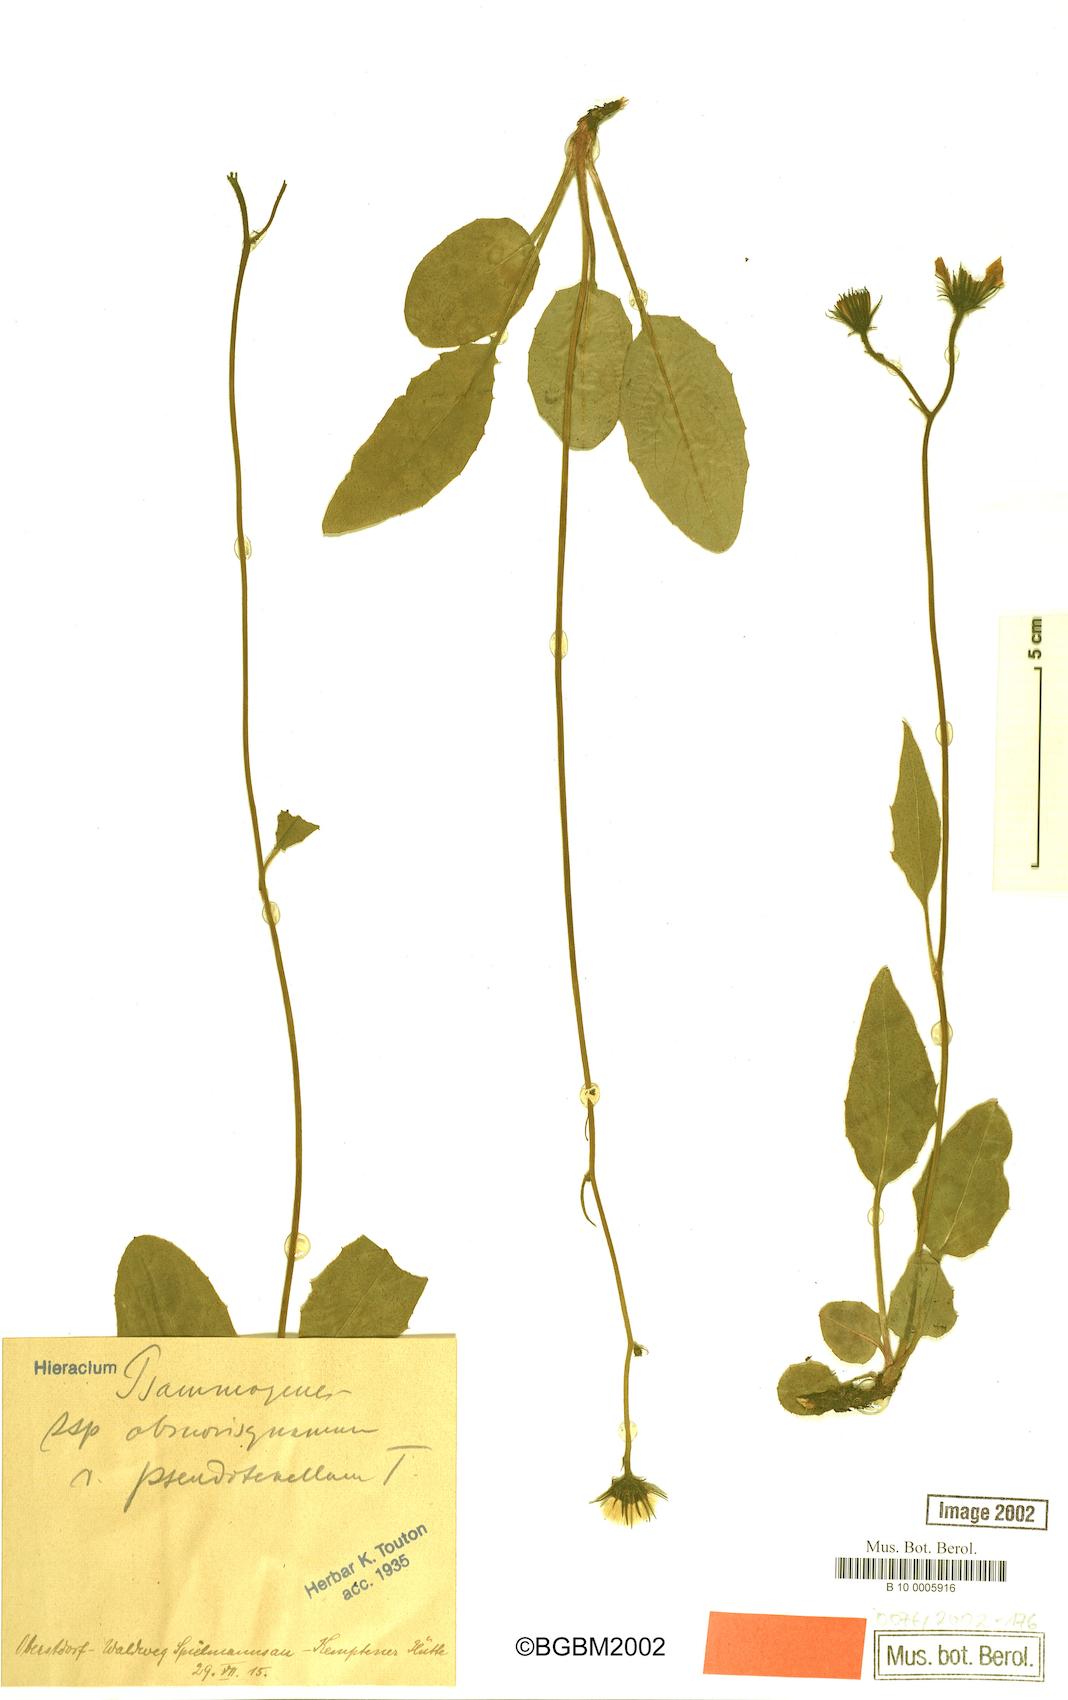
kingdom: Plantae
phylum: Tracheophyta
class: Magnoliopsida
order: Asterales
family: Asteraceae
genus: Hieracium
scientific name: Hieracium psammogenes
